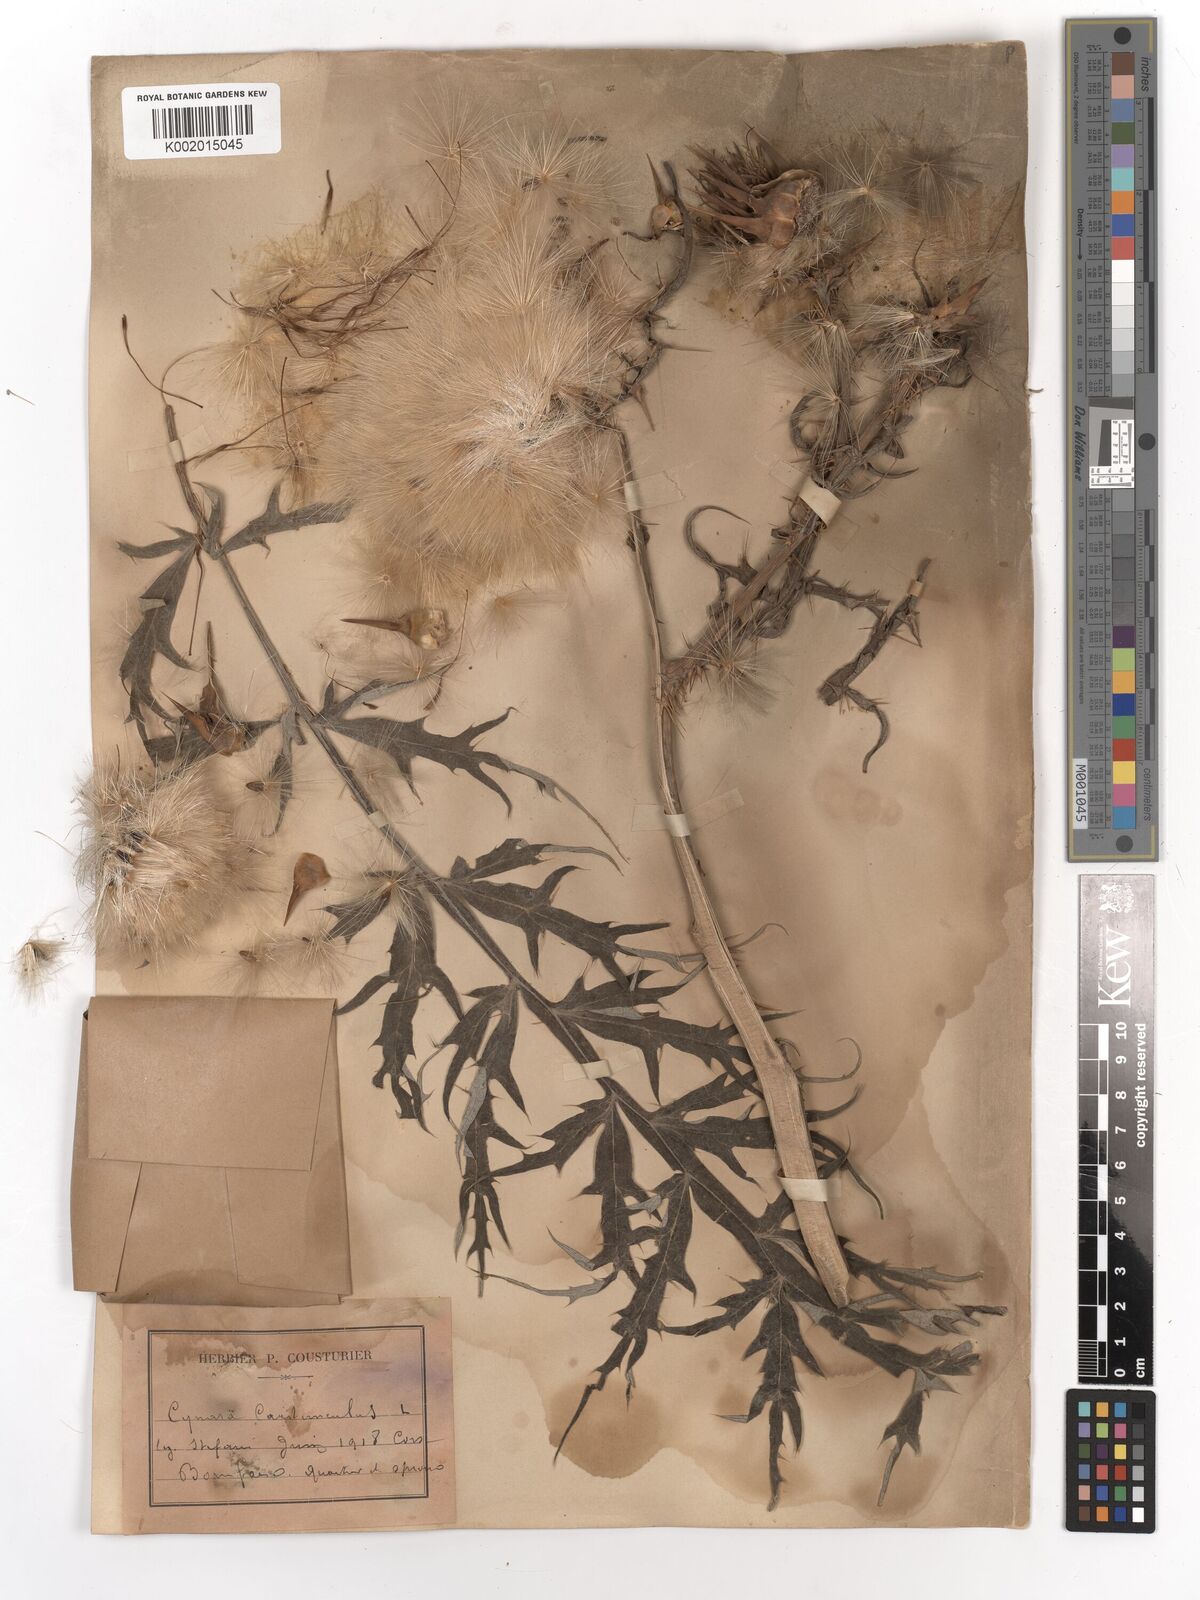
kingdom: Plantae
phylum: Tracheophyta
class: Magnoliopsida
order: Asterales
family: Asteraceae
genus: Cynara
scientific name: Cynara cardunculus
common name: Globe artichoke
